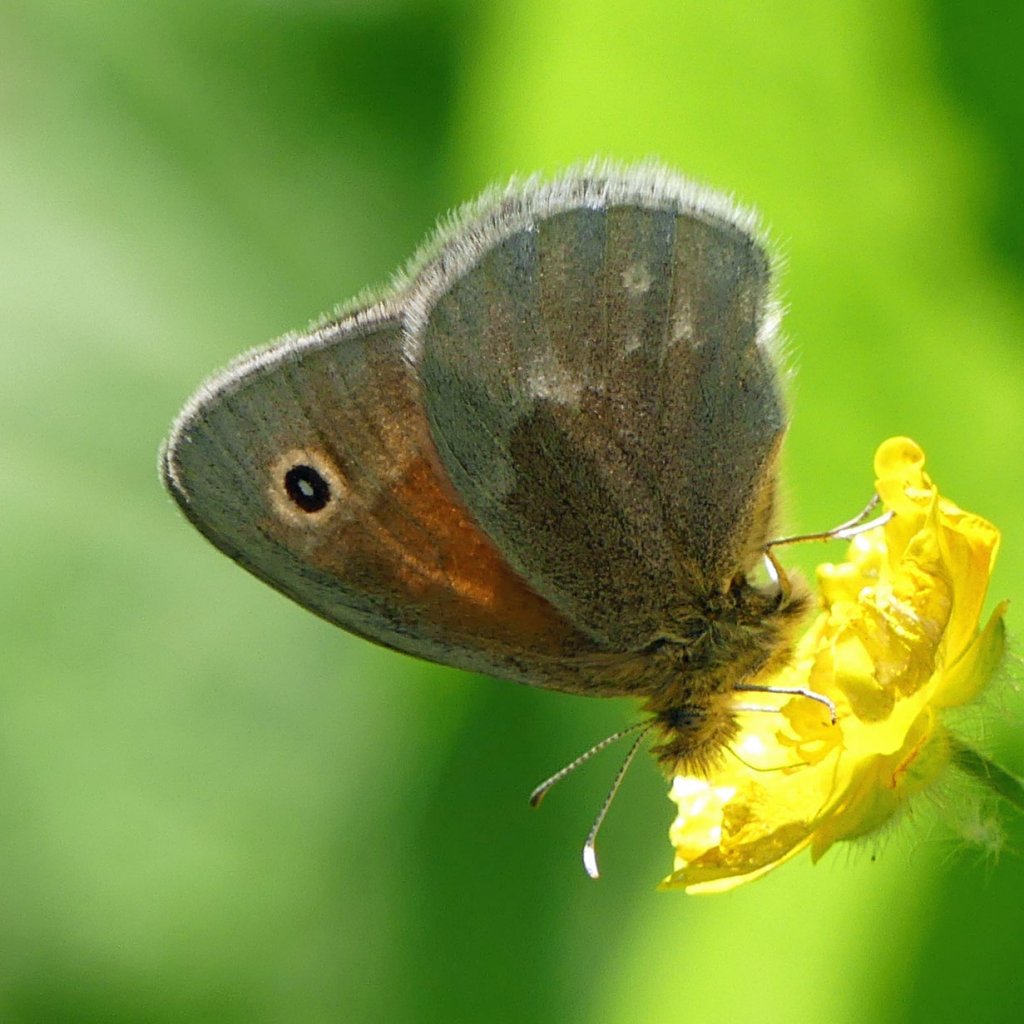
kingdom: Animalia
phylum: Arthropoda
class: Insecta
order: Lepidoptera
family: Nymphalidae
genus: Coenonympha
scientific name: Coenonympha tullia
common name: Large Heath
